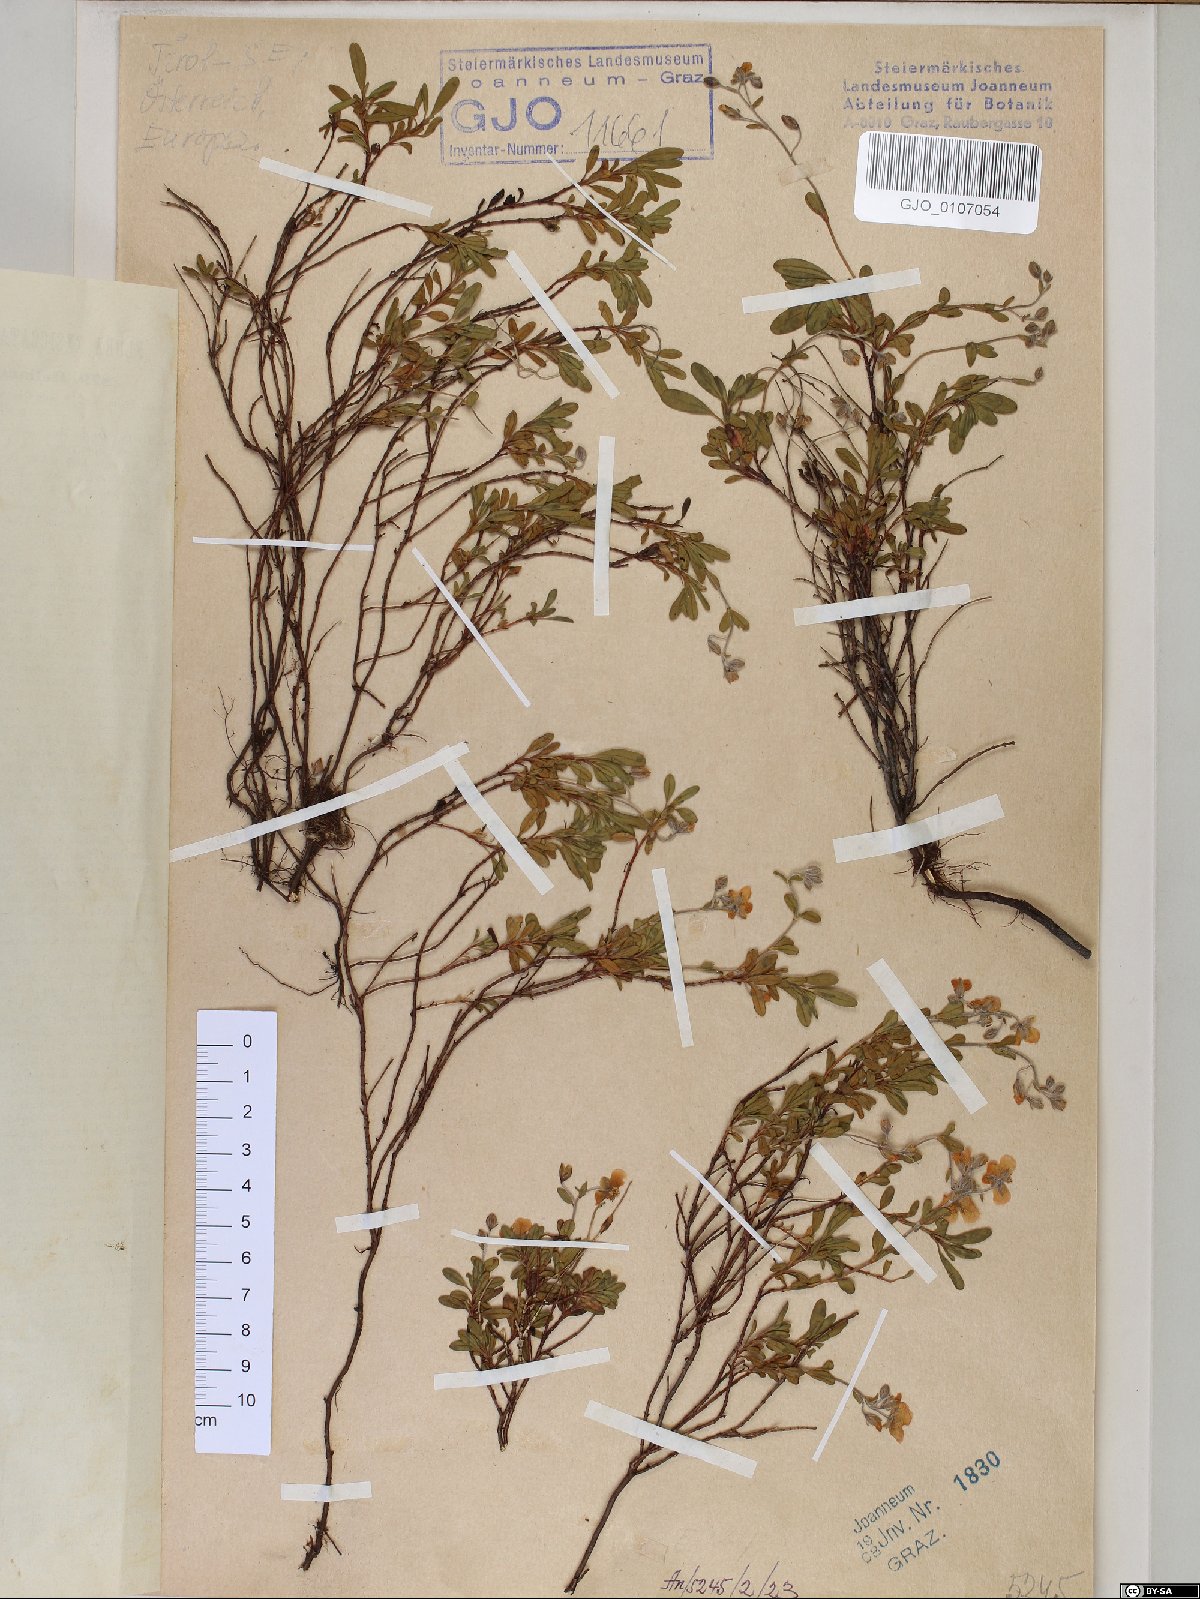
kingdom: Plantae
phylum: Tracheophyta
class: Magnoliopsida
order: Malvales
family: Cistaceae
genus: Helianthemum
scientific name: Helianthemum alpestre
